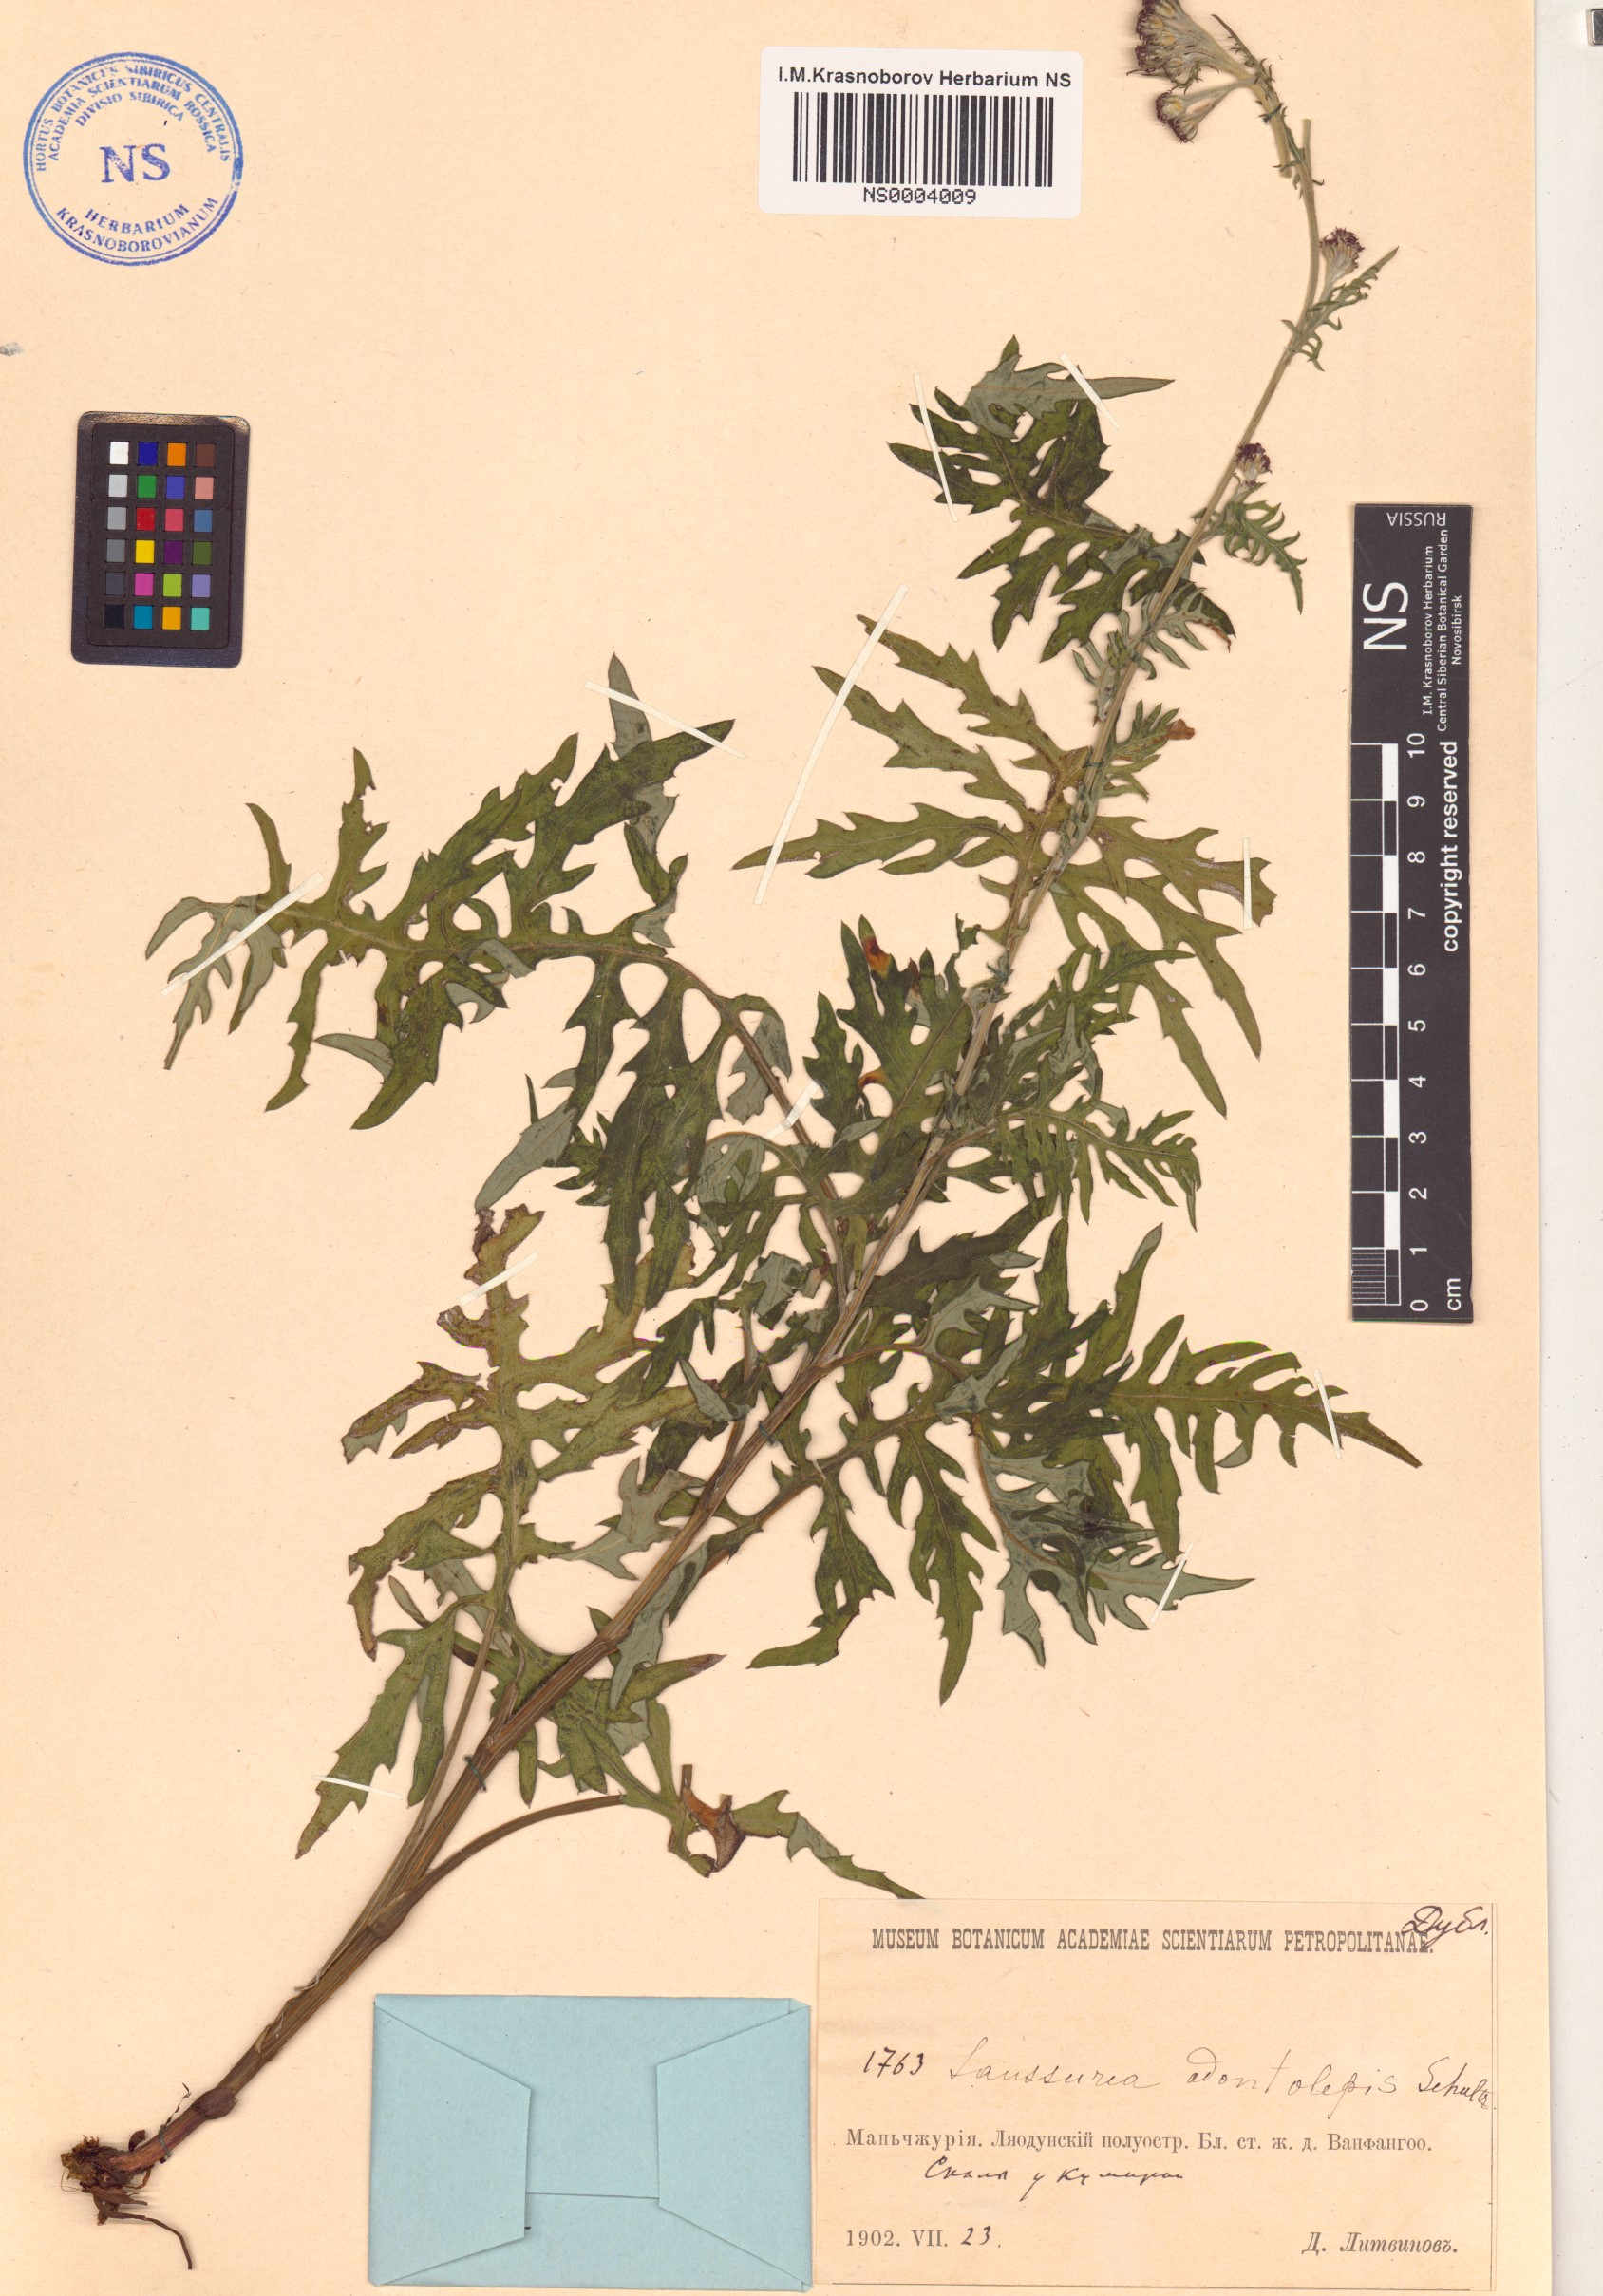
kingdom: Plantae
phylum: Tracheophyta
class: Magnoliopsida
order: Asterales
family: Asteraceae
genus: Saussurea
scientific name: Saussurea odontolepis
